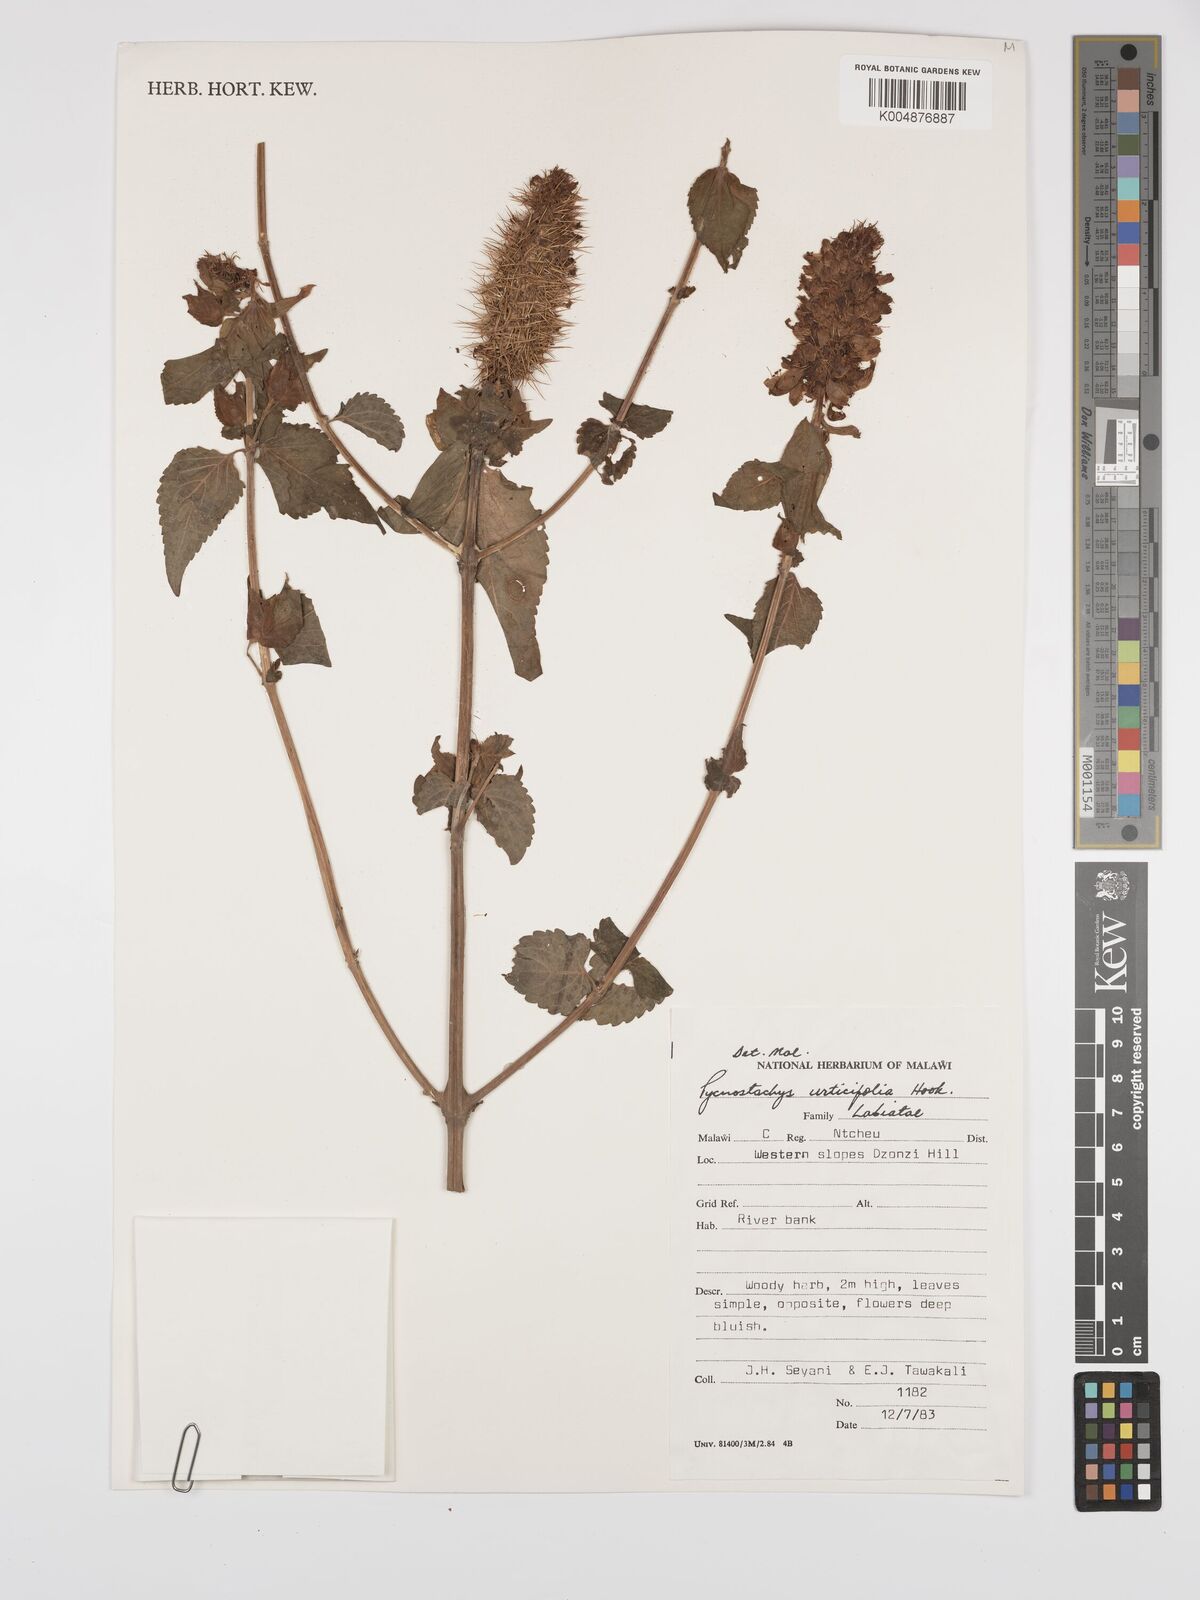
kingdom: Plantae
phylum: Tracheophyta
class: Magnoliopsida
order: Lamiales
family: Lamiaceae
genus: Coleus
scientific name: Coleus
